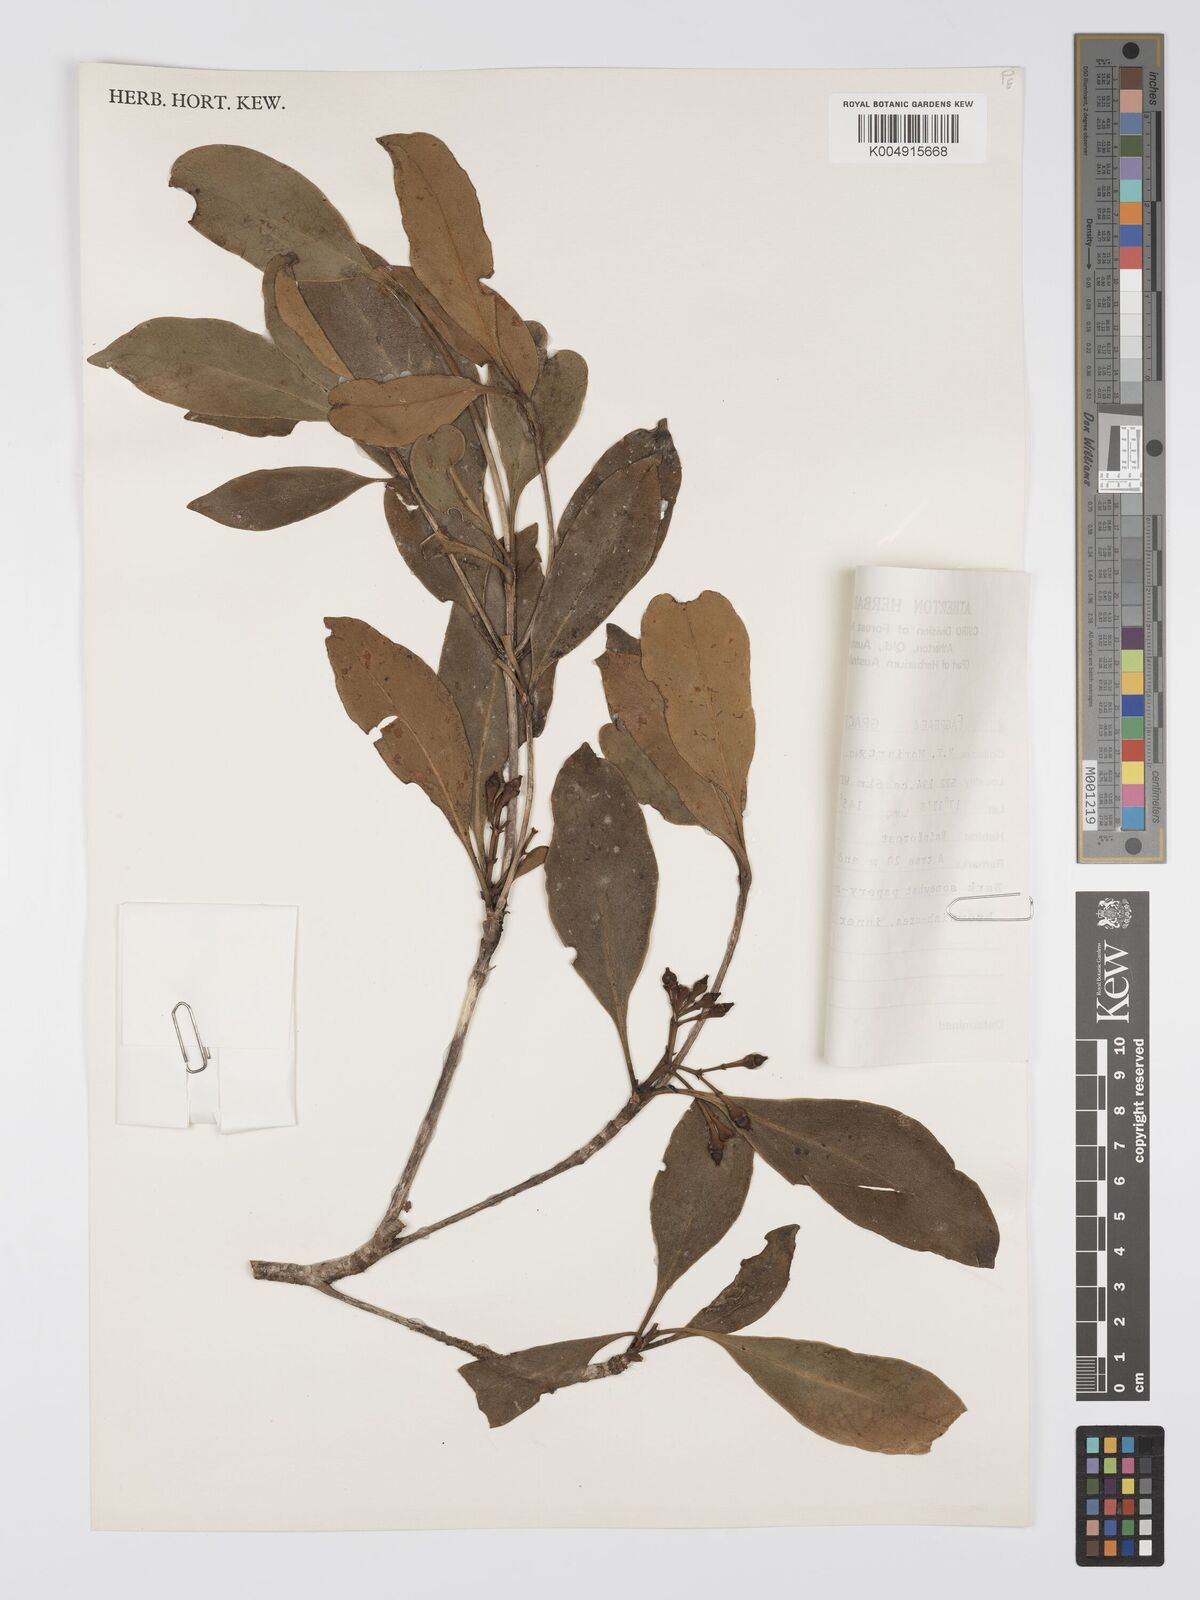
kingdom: Plantae
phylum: Tracheophyta
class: Magnoliopsida
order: Gentianales
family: Gentianaceae
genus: Fagraea
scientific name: Fagraea gracilipes
